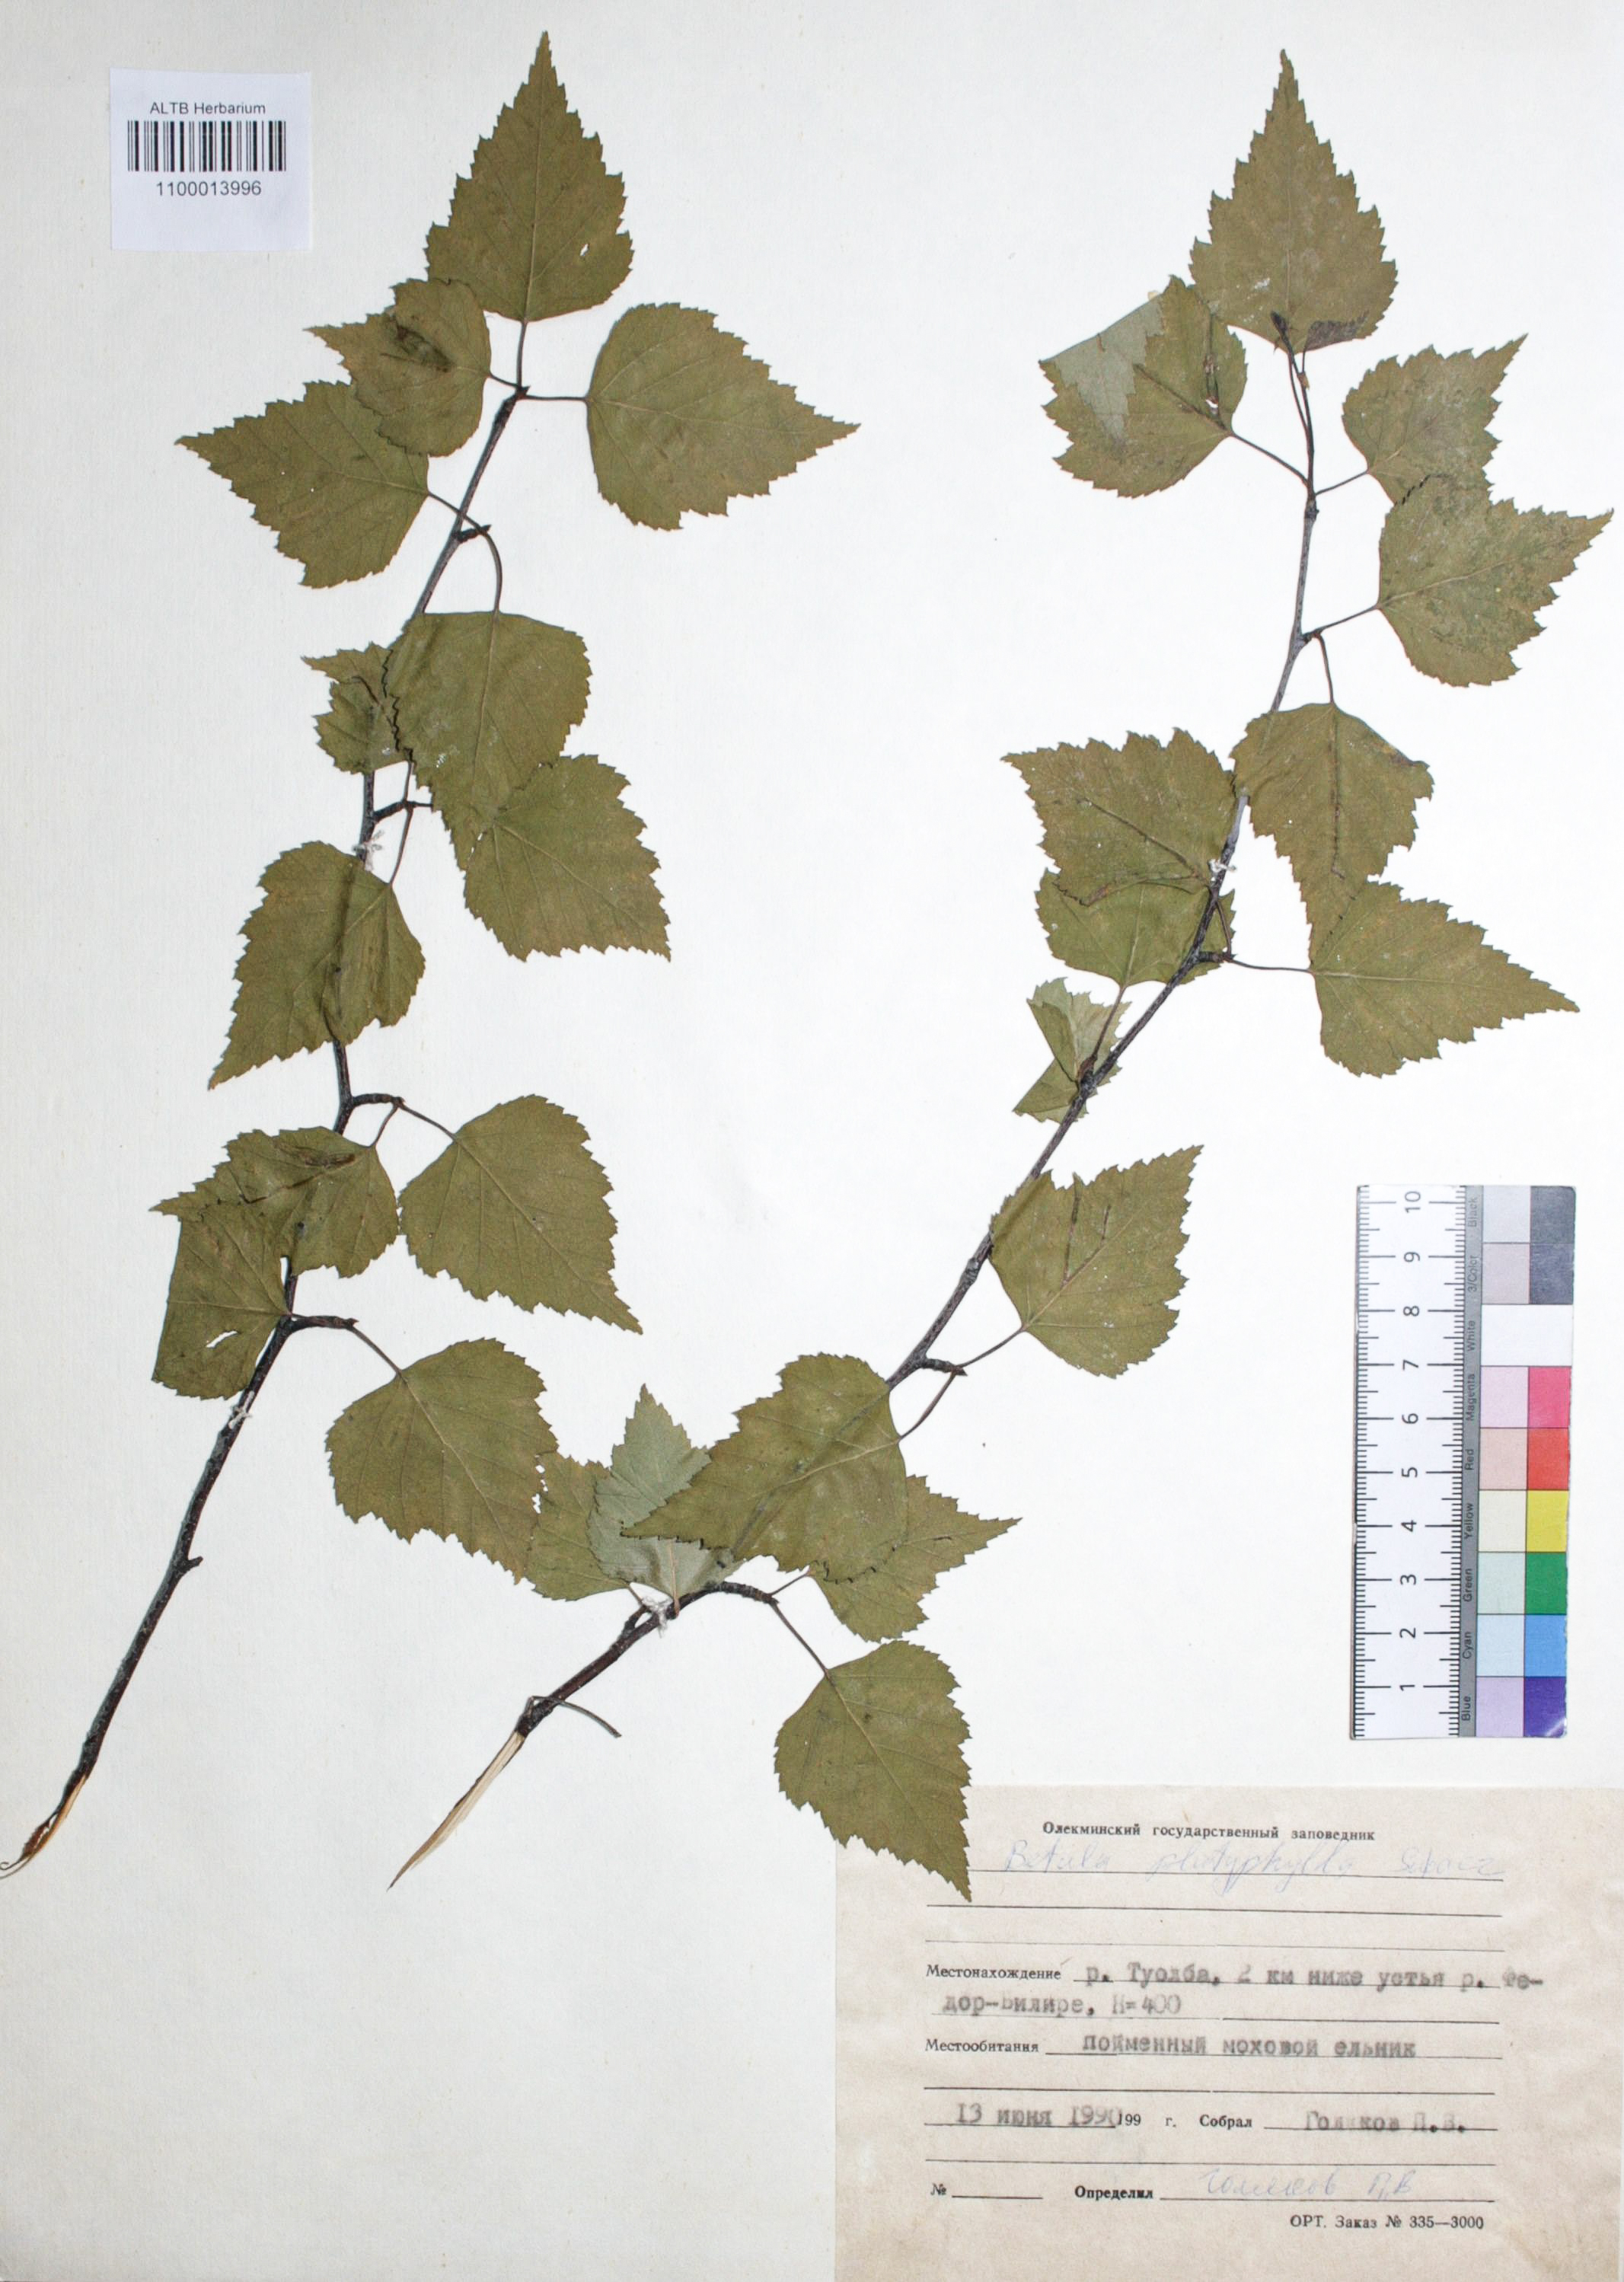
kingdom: Plantae
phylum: Tracheophyta
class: Magnoliopsida
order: Fagales
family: Betulaceae
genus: Betula
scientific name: Betula pendula
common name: Silver birch
